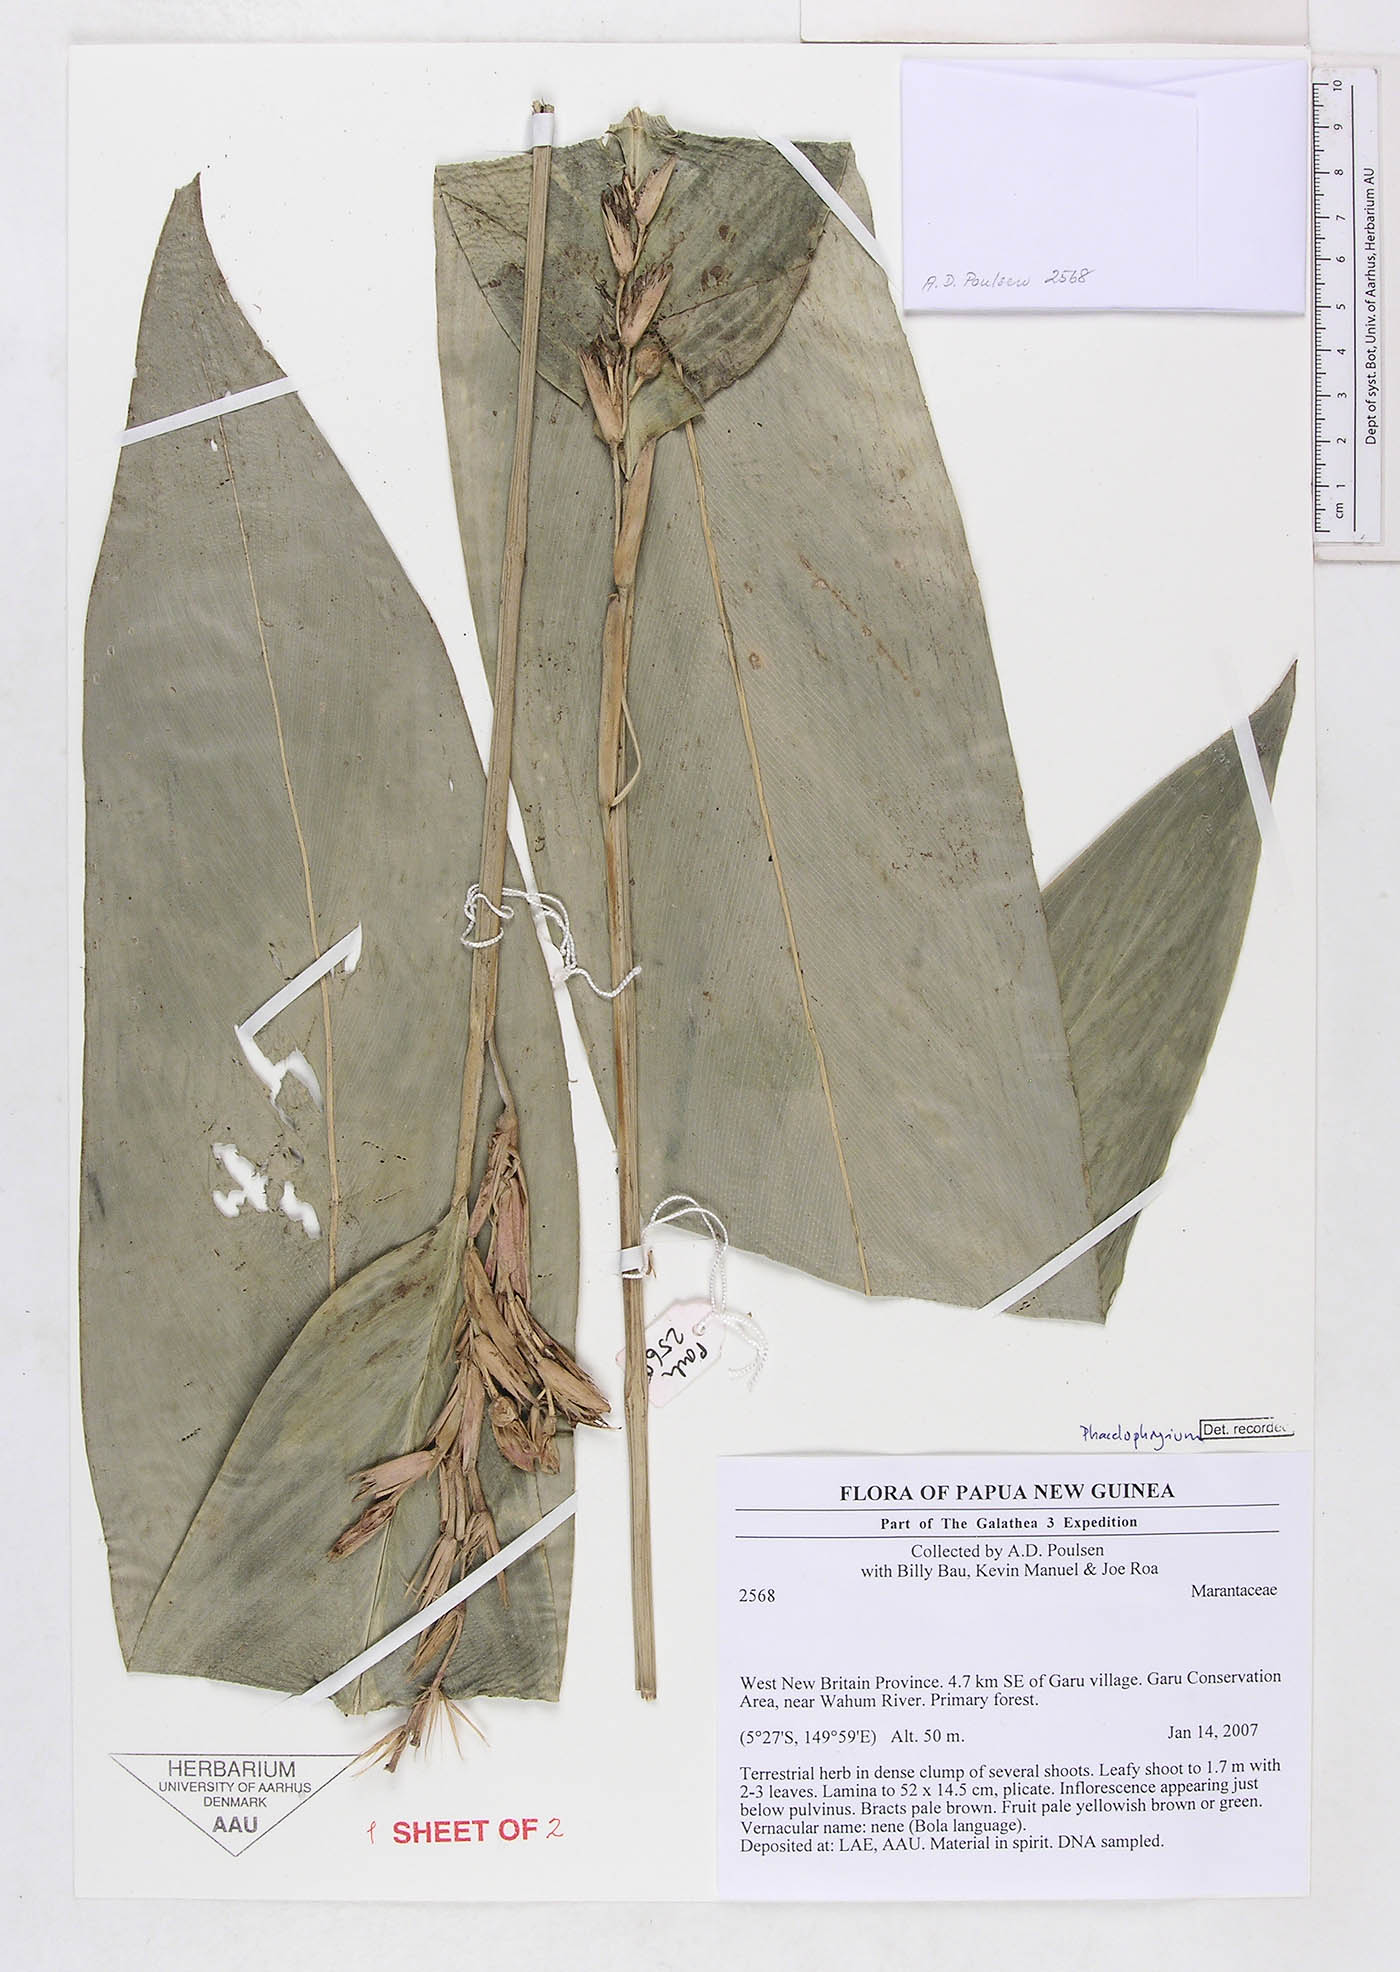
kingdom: Plantae
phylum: Tracheophyta
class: Liliopsida
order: Zingiberales
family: Marantaceae
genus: Phrynium
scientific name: Phrynium whitei
